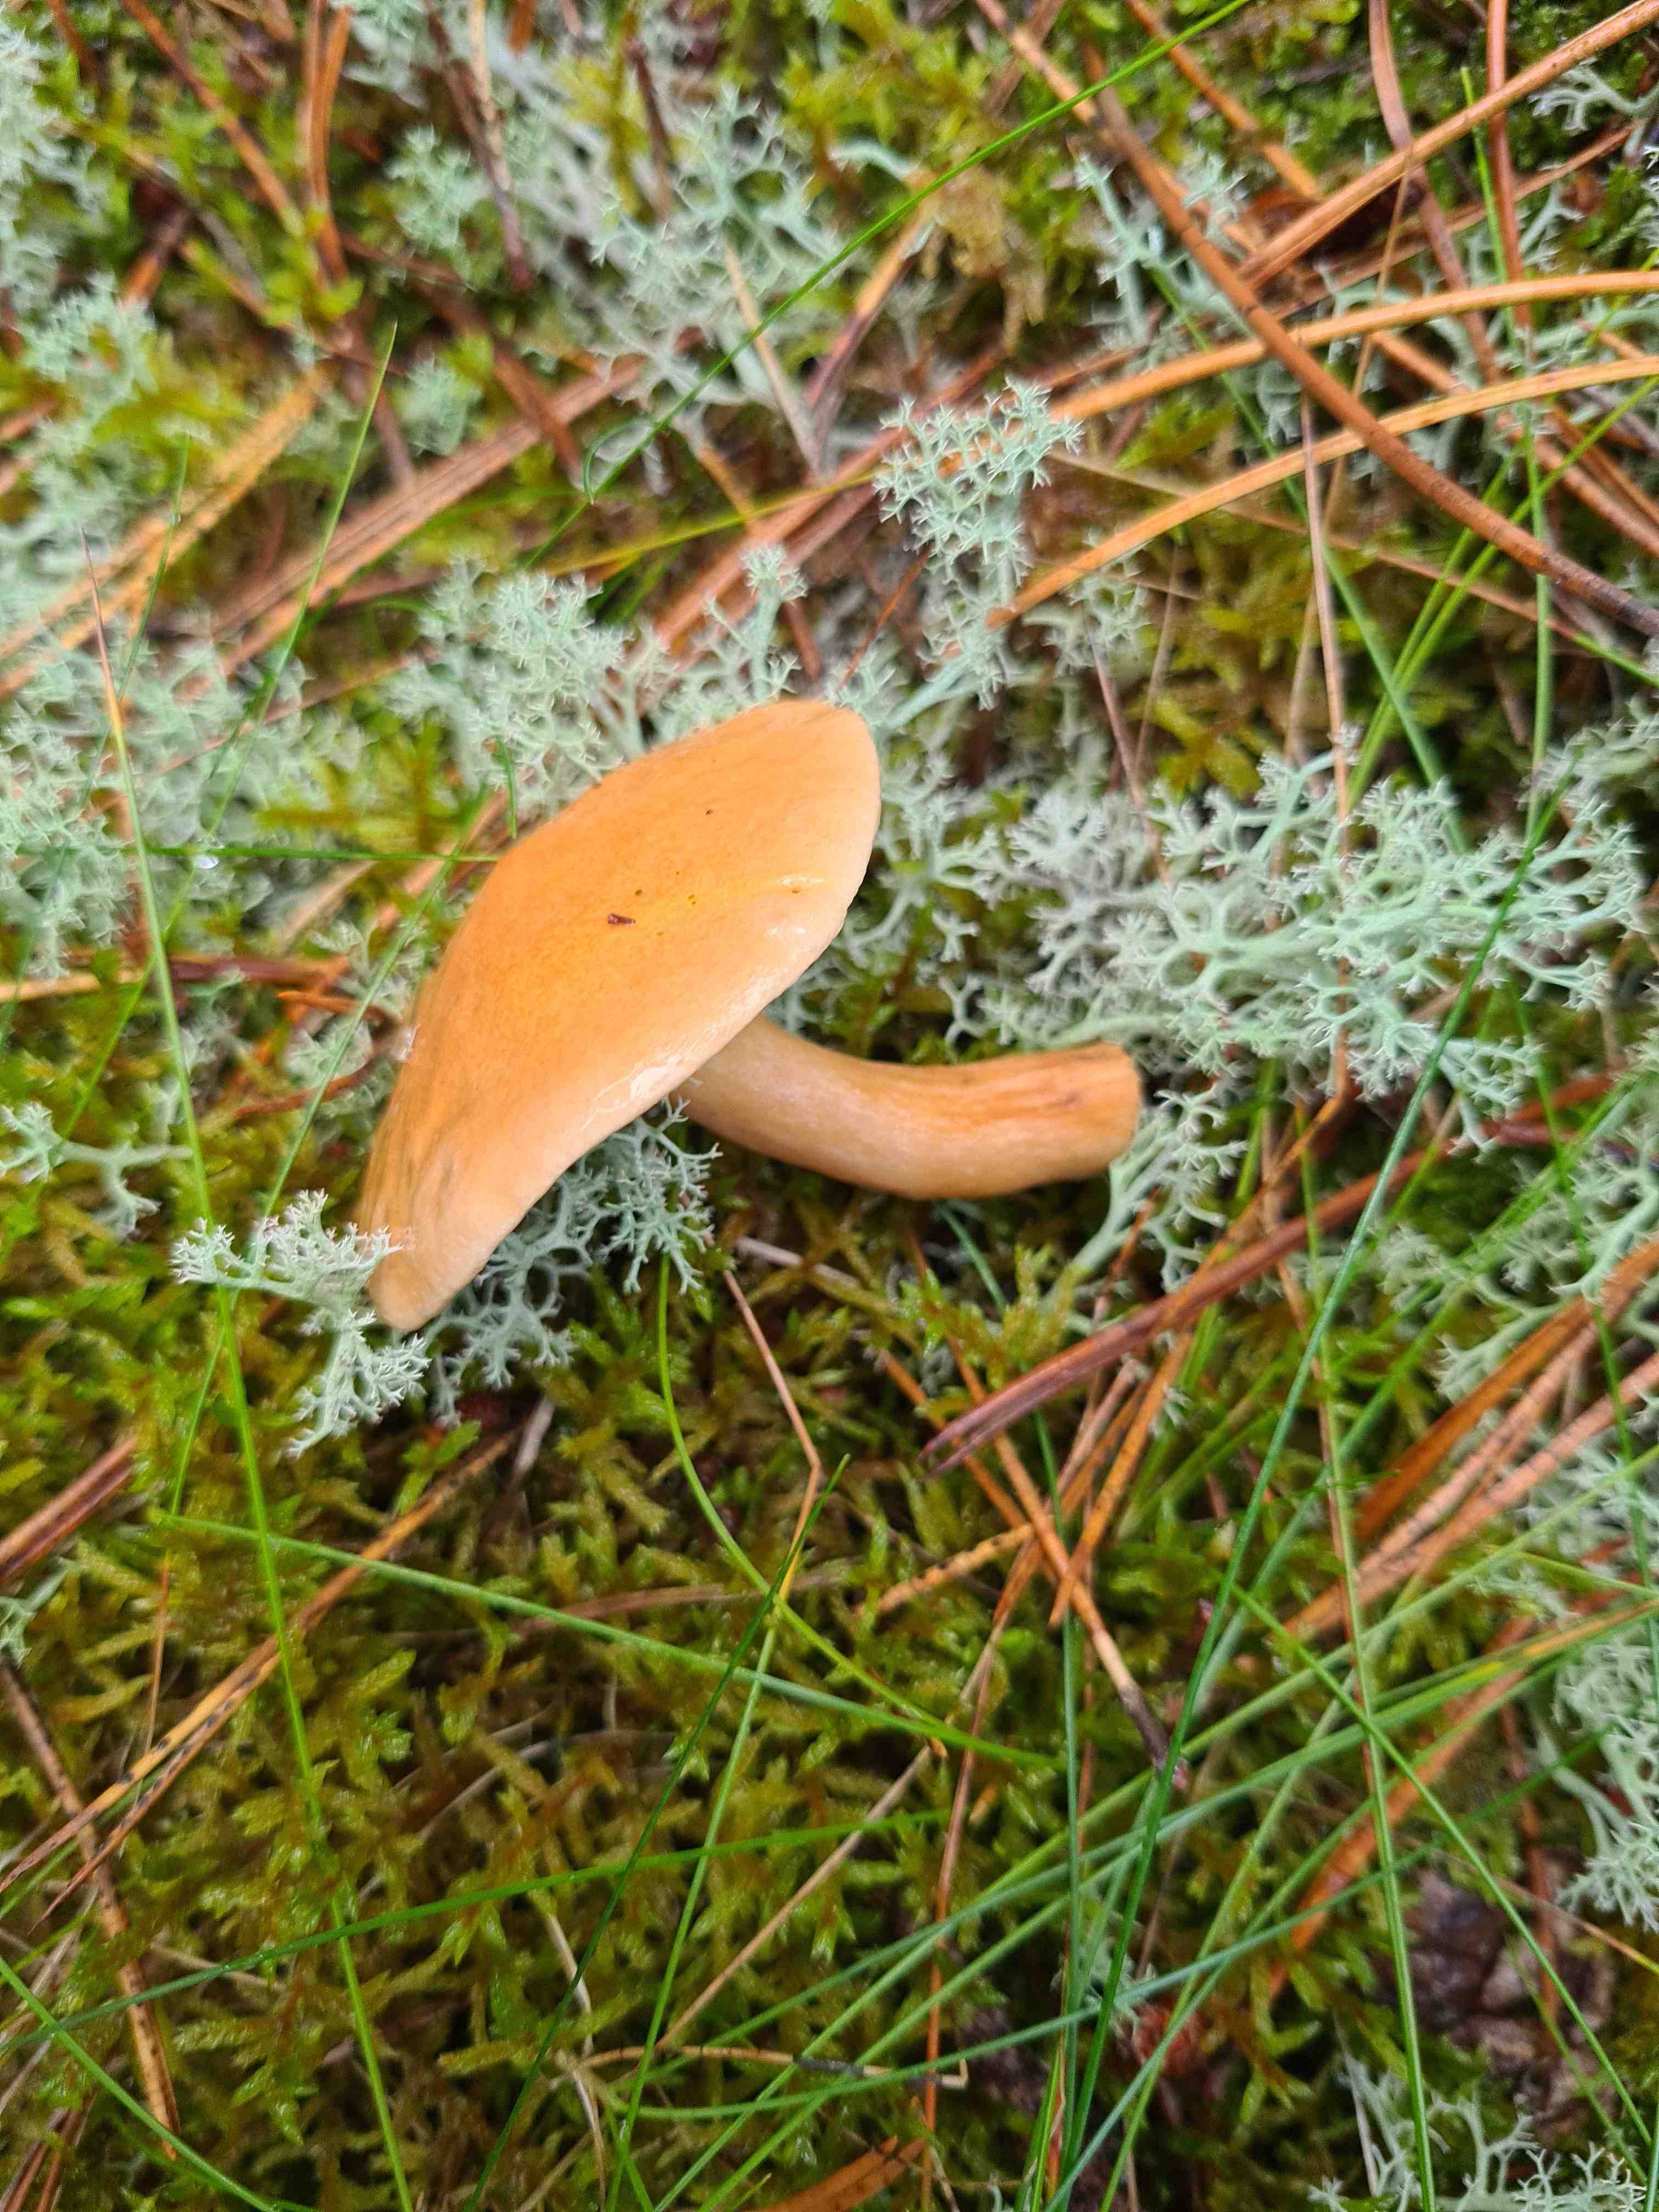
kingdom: Fungi
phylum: Basidiomycota
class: Agaricomycetes
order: Boletales
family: Suillaceae
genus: Suillus
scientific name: Suillus bovinus
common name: grovporet slimrørhat
